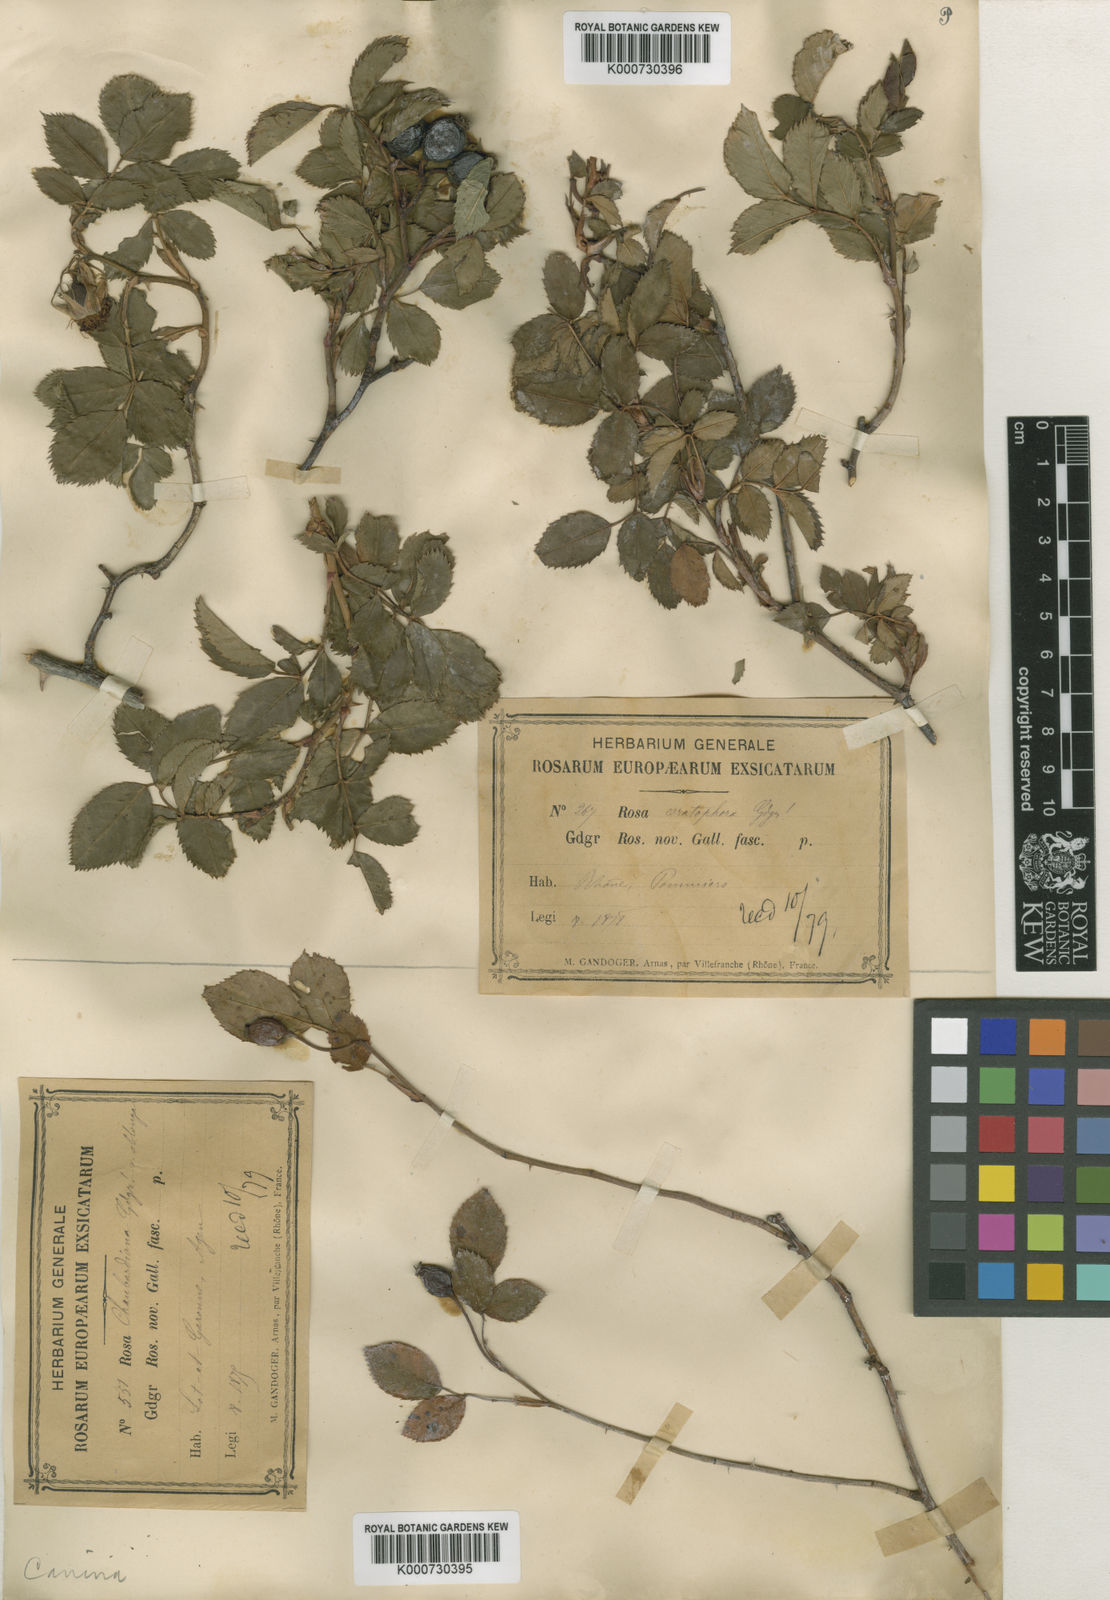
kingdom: Plantae
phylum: Tracheophyta
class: Magnoliopsida
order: Rosales
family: Rosaceae
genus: Rosa
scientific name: Rosa canina
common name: Dog rose
